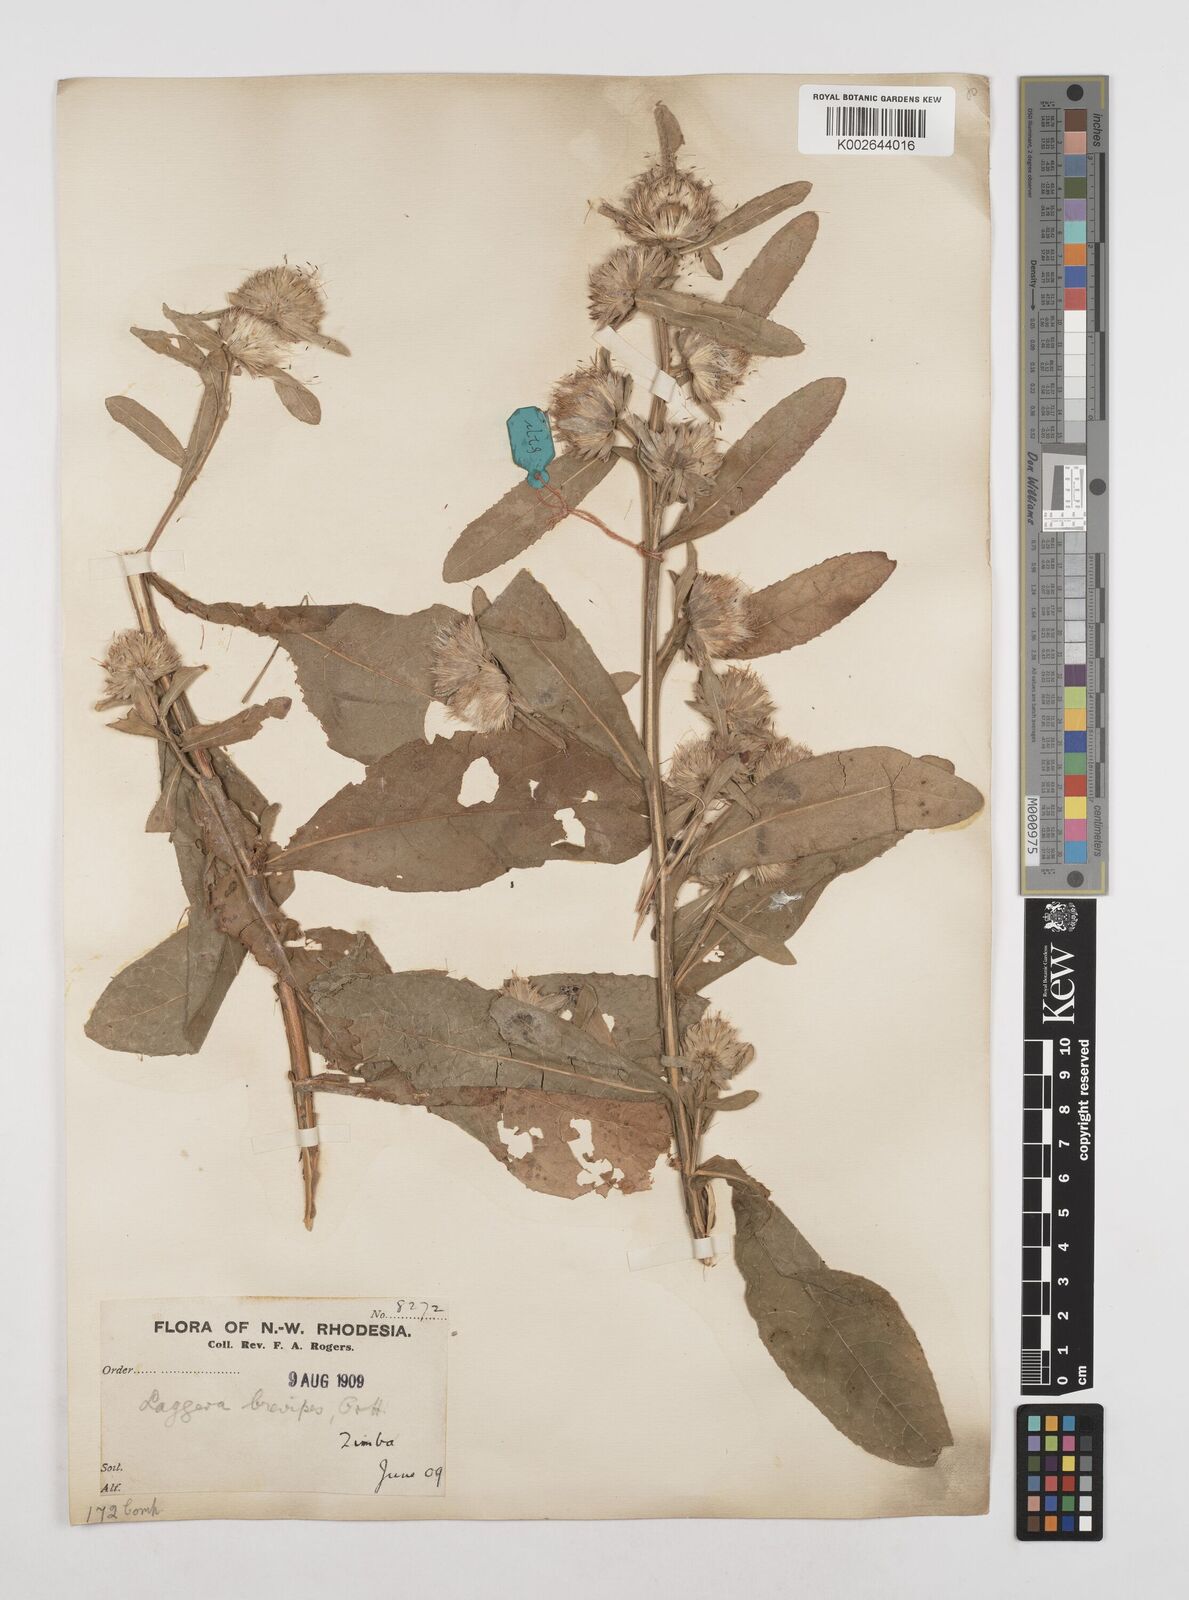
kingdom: Plantae
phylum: Tracheophyta
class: Magnoliopsida
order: Asterales
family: Asteraceae
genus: Laggera
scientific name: Laggera brevipes
